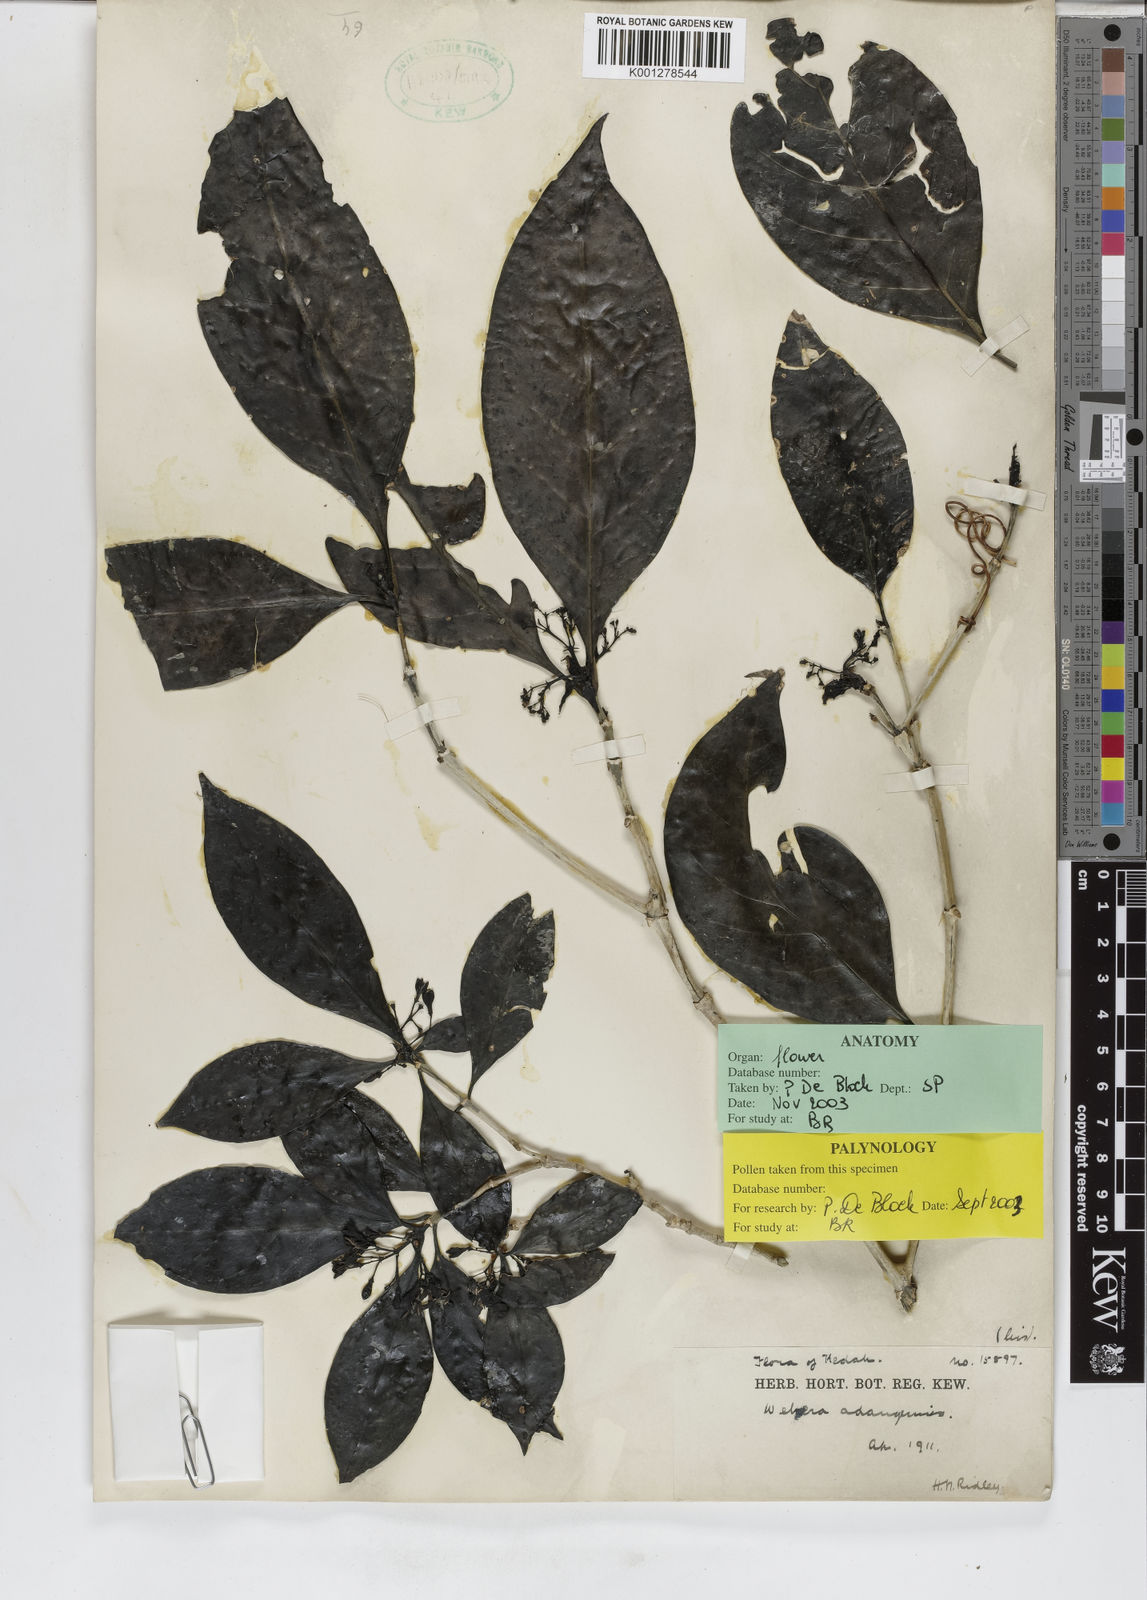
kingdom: Plantae
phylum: Tracheophyta
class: Magnoliopsida
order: Gentianales
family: Rubiaceae
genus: Tarenna
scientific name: Tarenna adangensis
